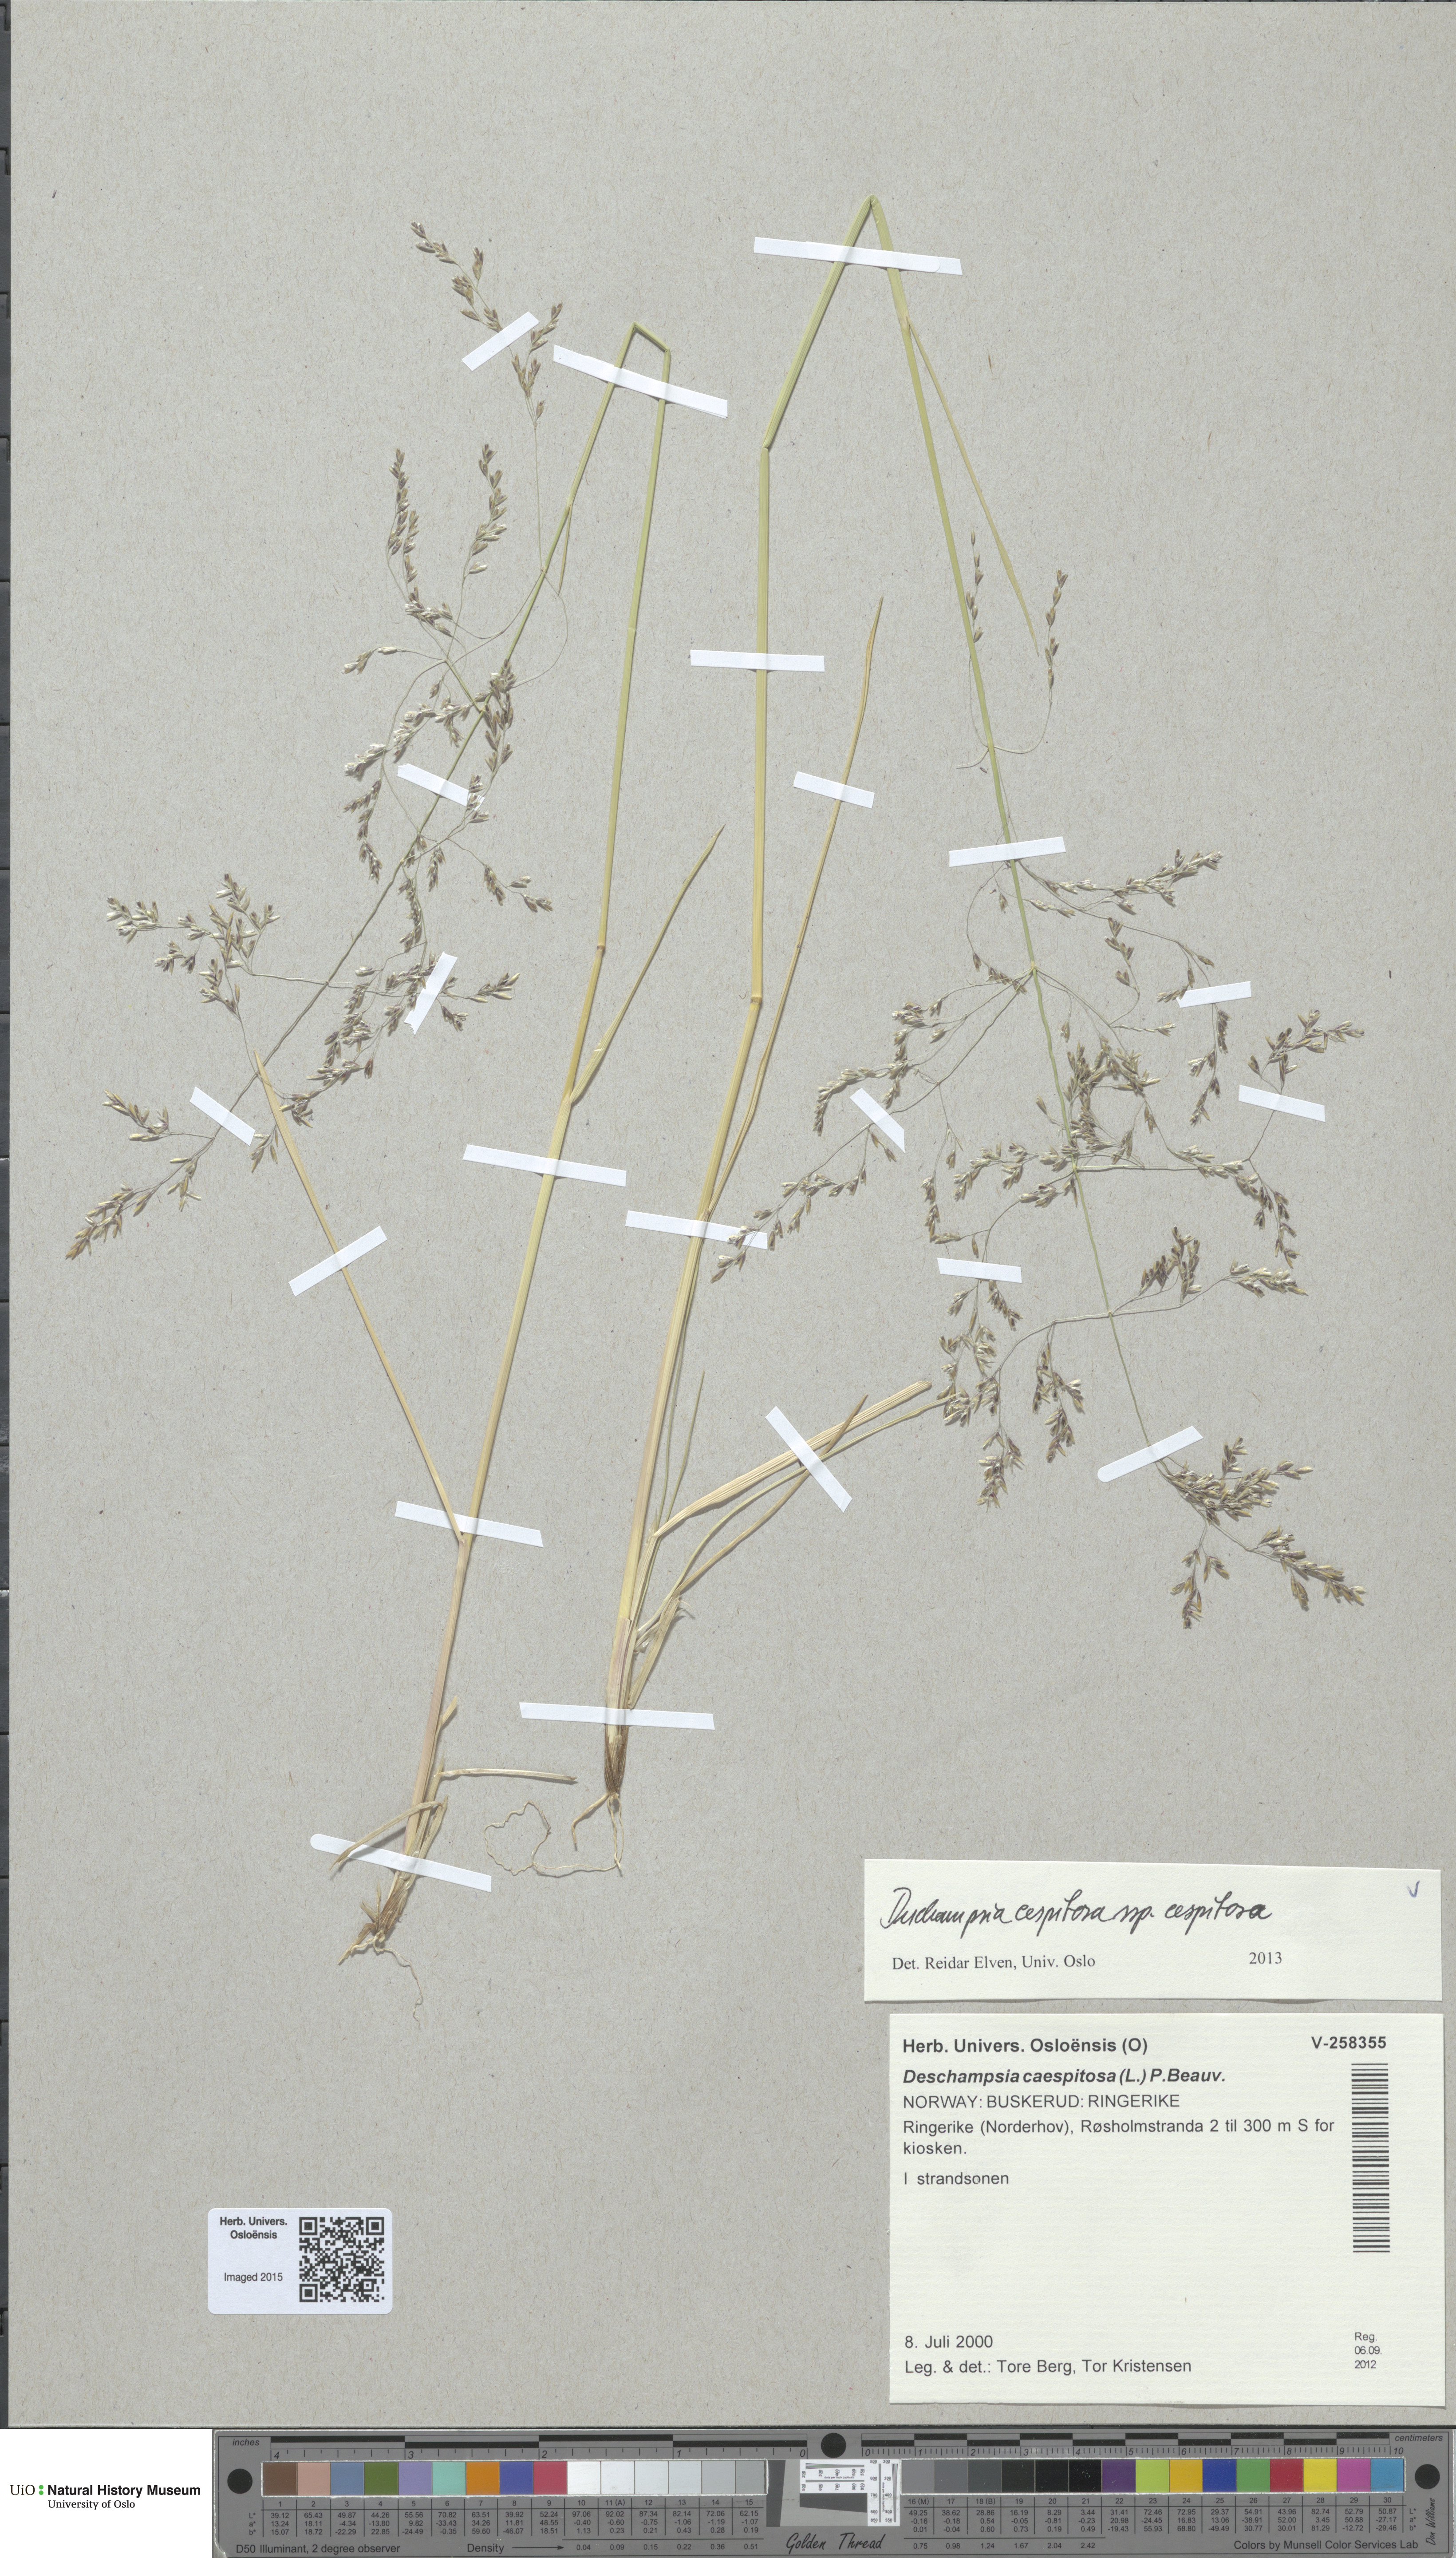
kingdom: Plantae
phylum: Tracheophyta
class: Liliopsida
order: Poales
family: Poaceae
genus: Deschampsia
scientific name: Deschampsia cespitosa
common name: Tufted hair-grass
